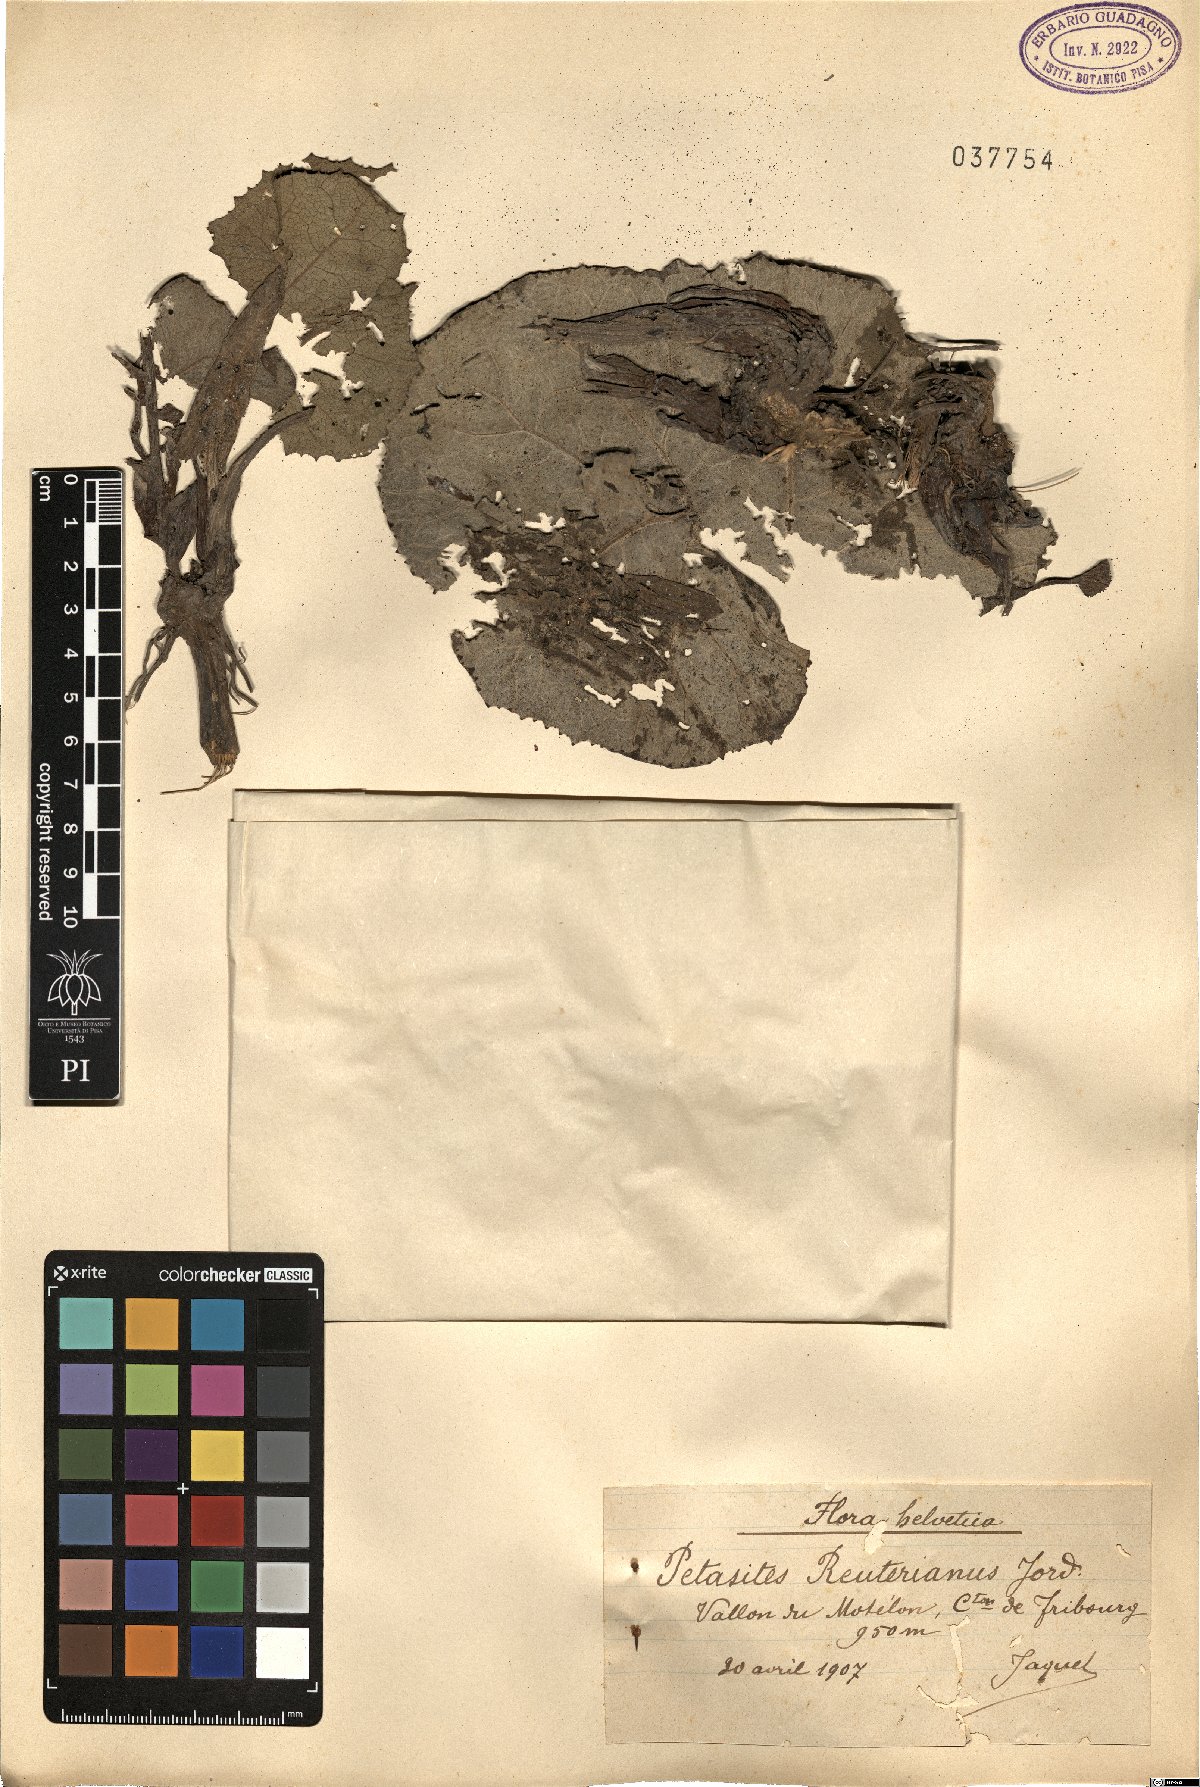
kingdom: Plantae
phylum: Tracheophyta
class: Magnoliopsida
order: Asterales
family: Asteraceae
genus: Petasites
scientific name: Petasites hybridus
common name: Butterbur
